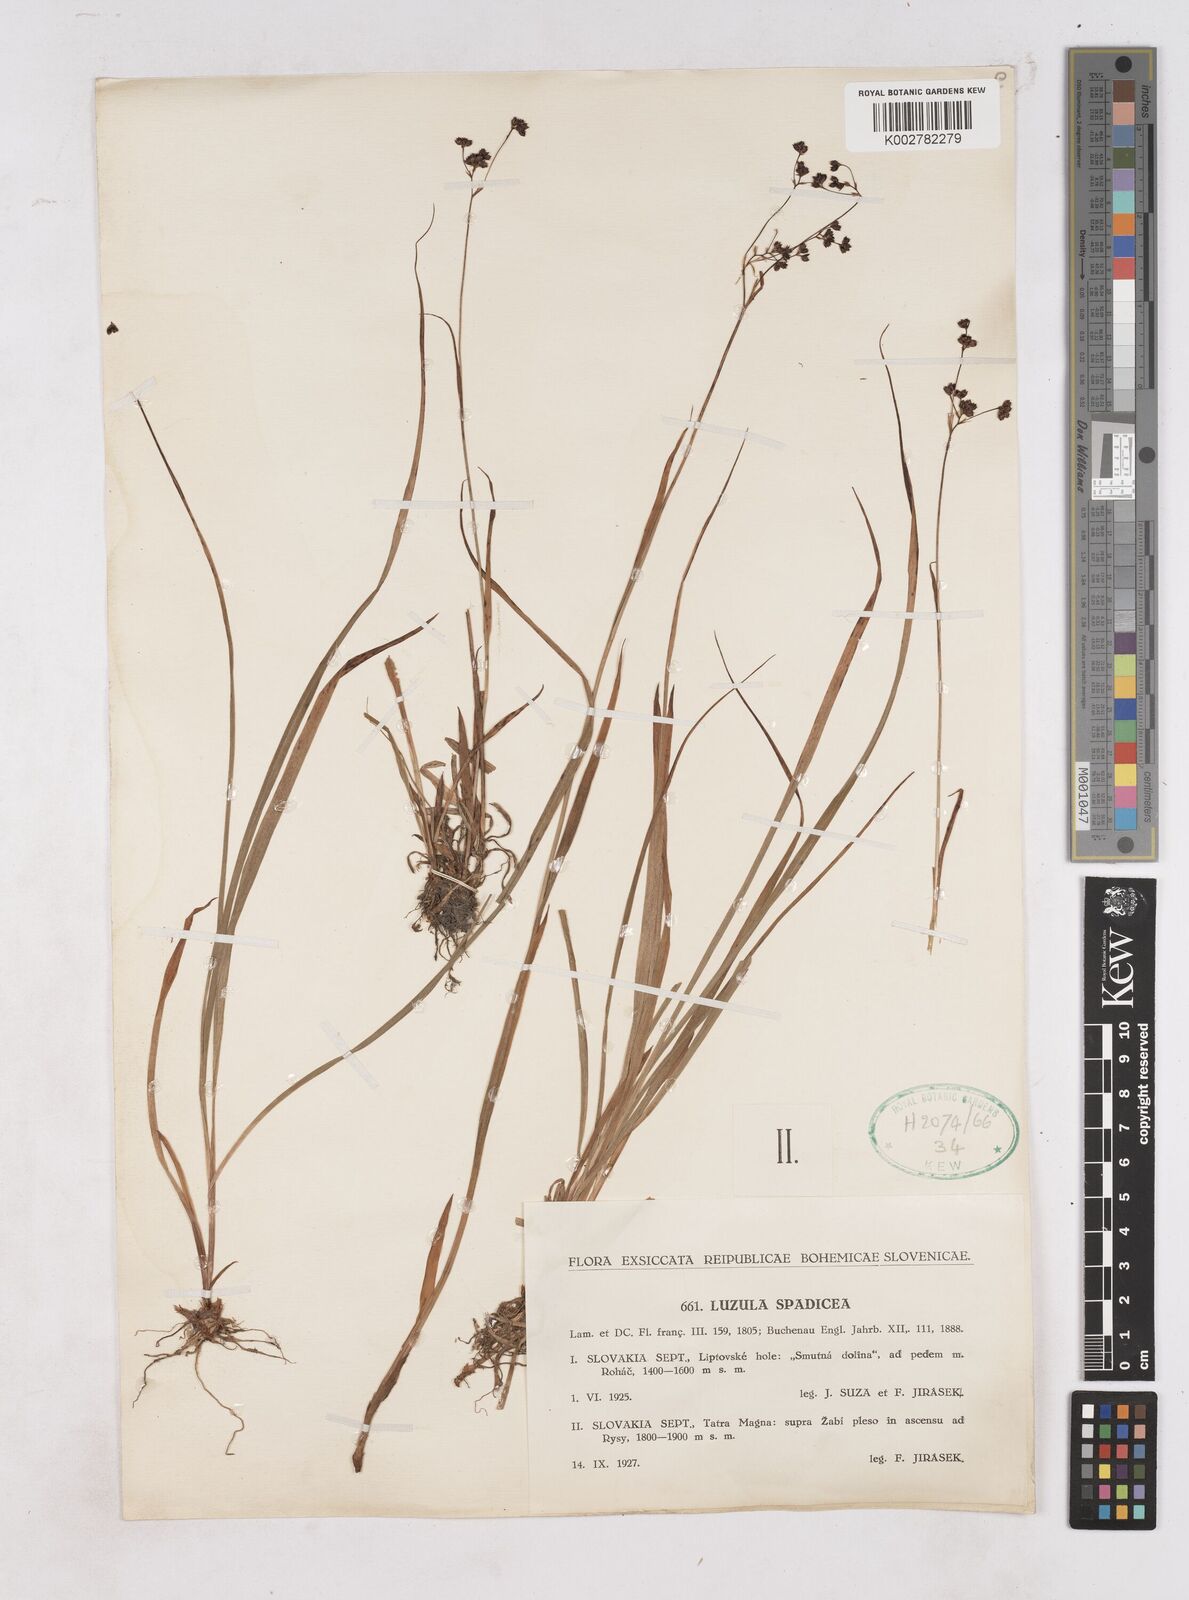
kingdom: Plantae
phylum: Tracheophyta
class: Liliopsida
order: Poales
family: Juncaceae
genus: Luzula
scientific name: Luzula alpinopilosa
